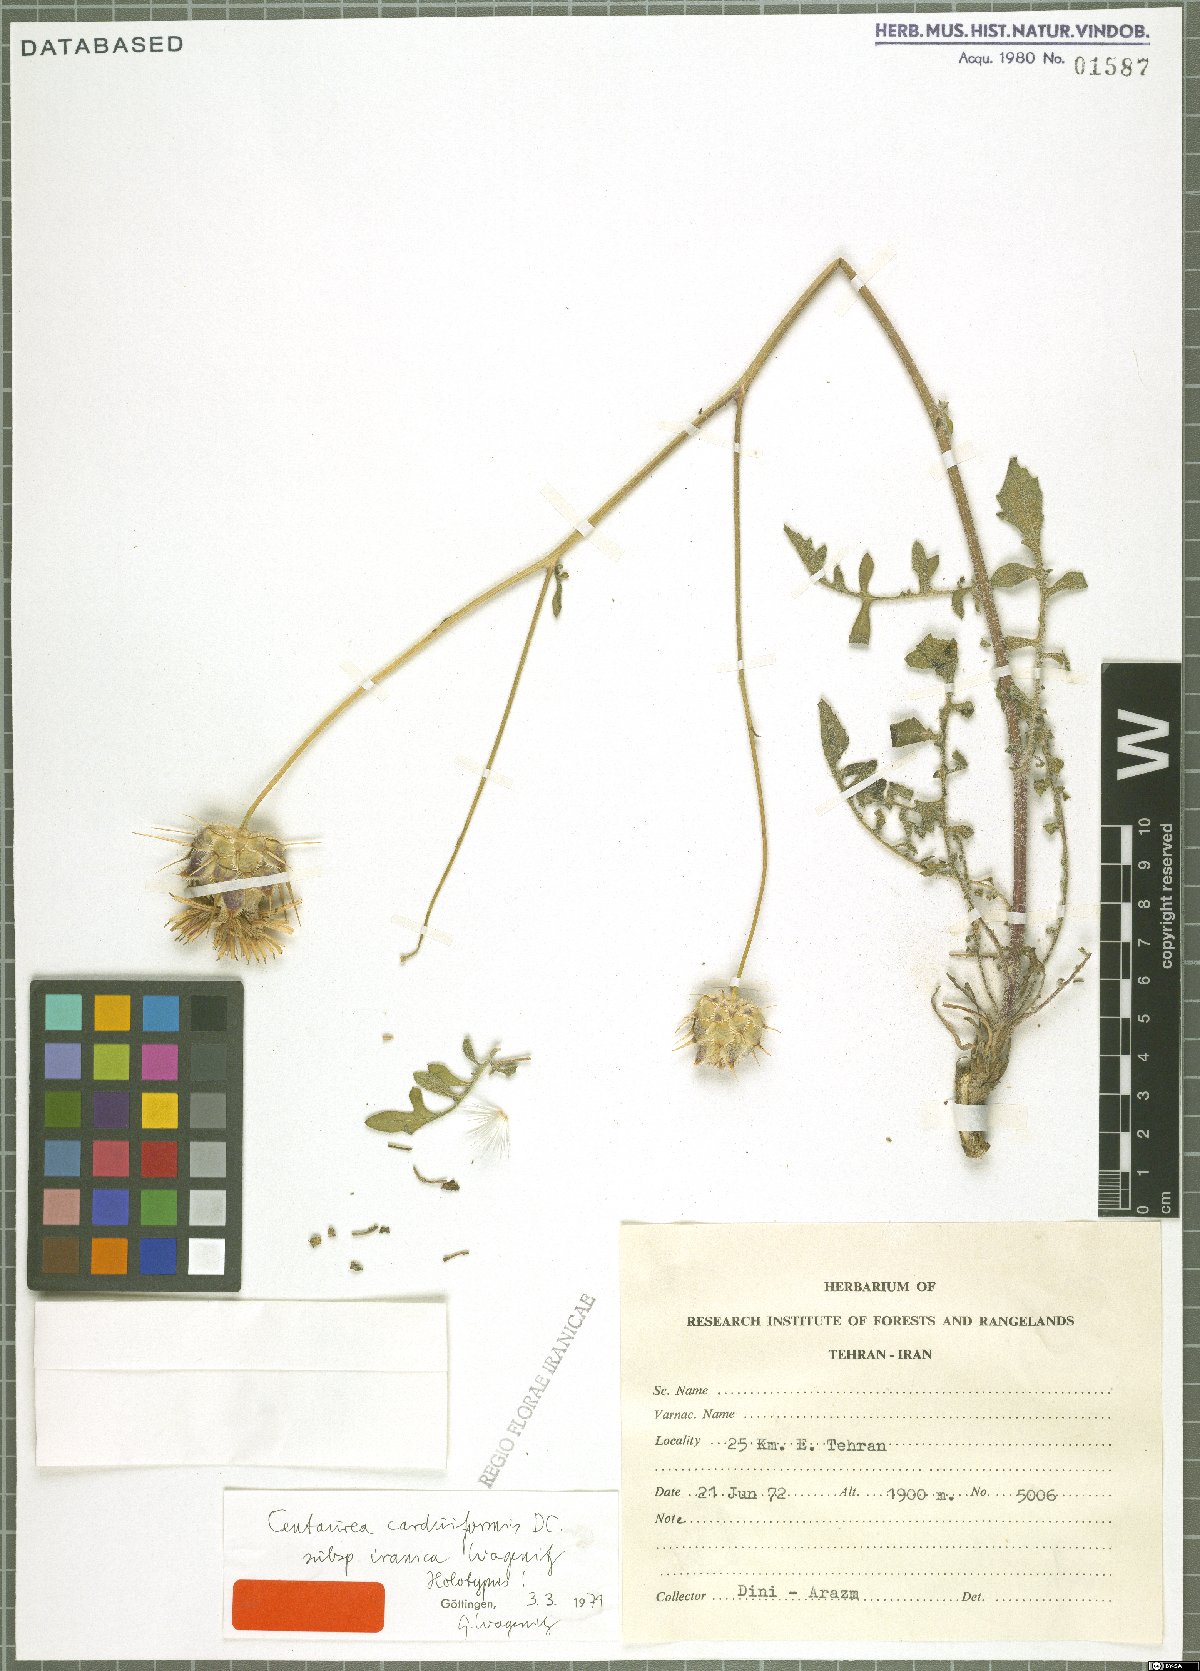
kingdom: Plantae
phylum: Tracheophyta
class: Magnoliopsida
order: Asterales
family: Asteraceae
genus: Centaurea
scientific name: Centaurea carduiformis
